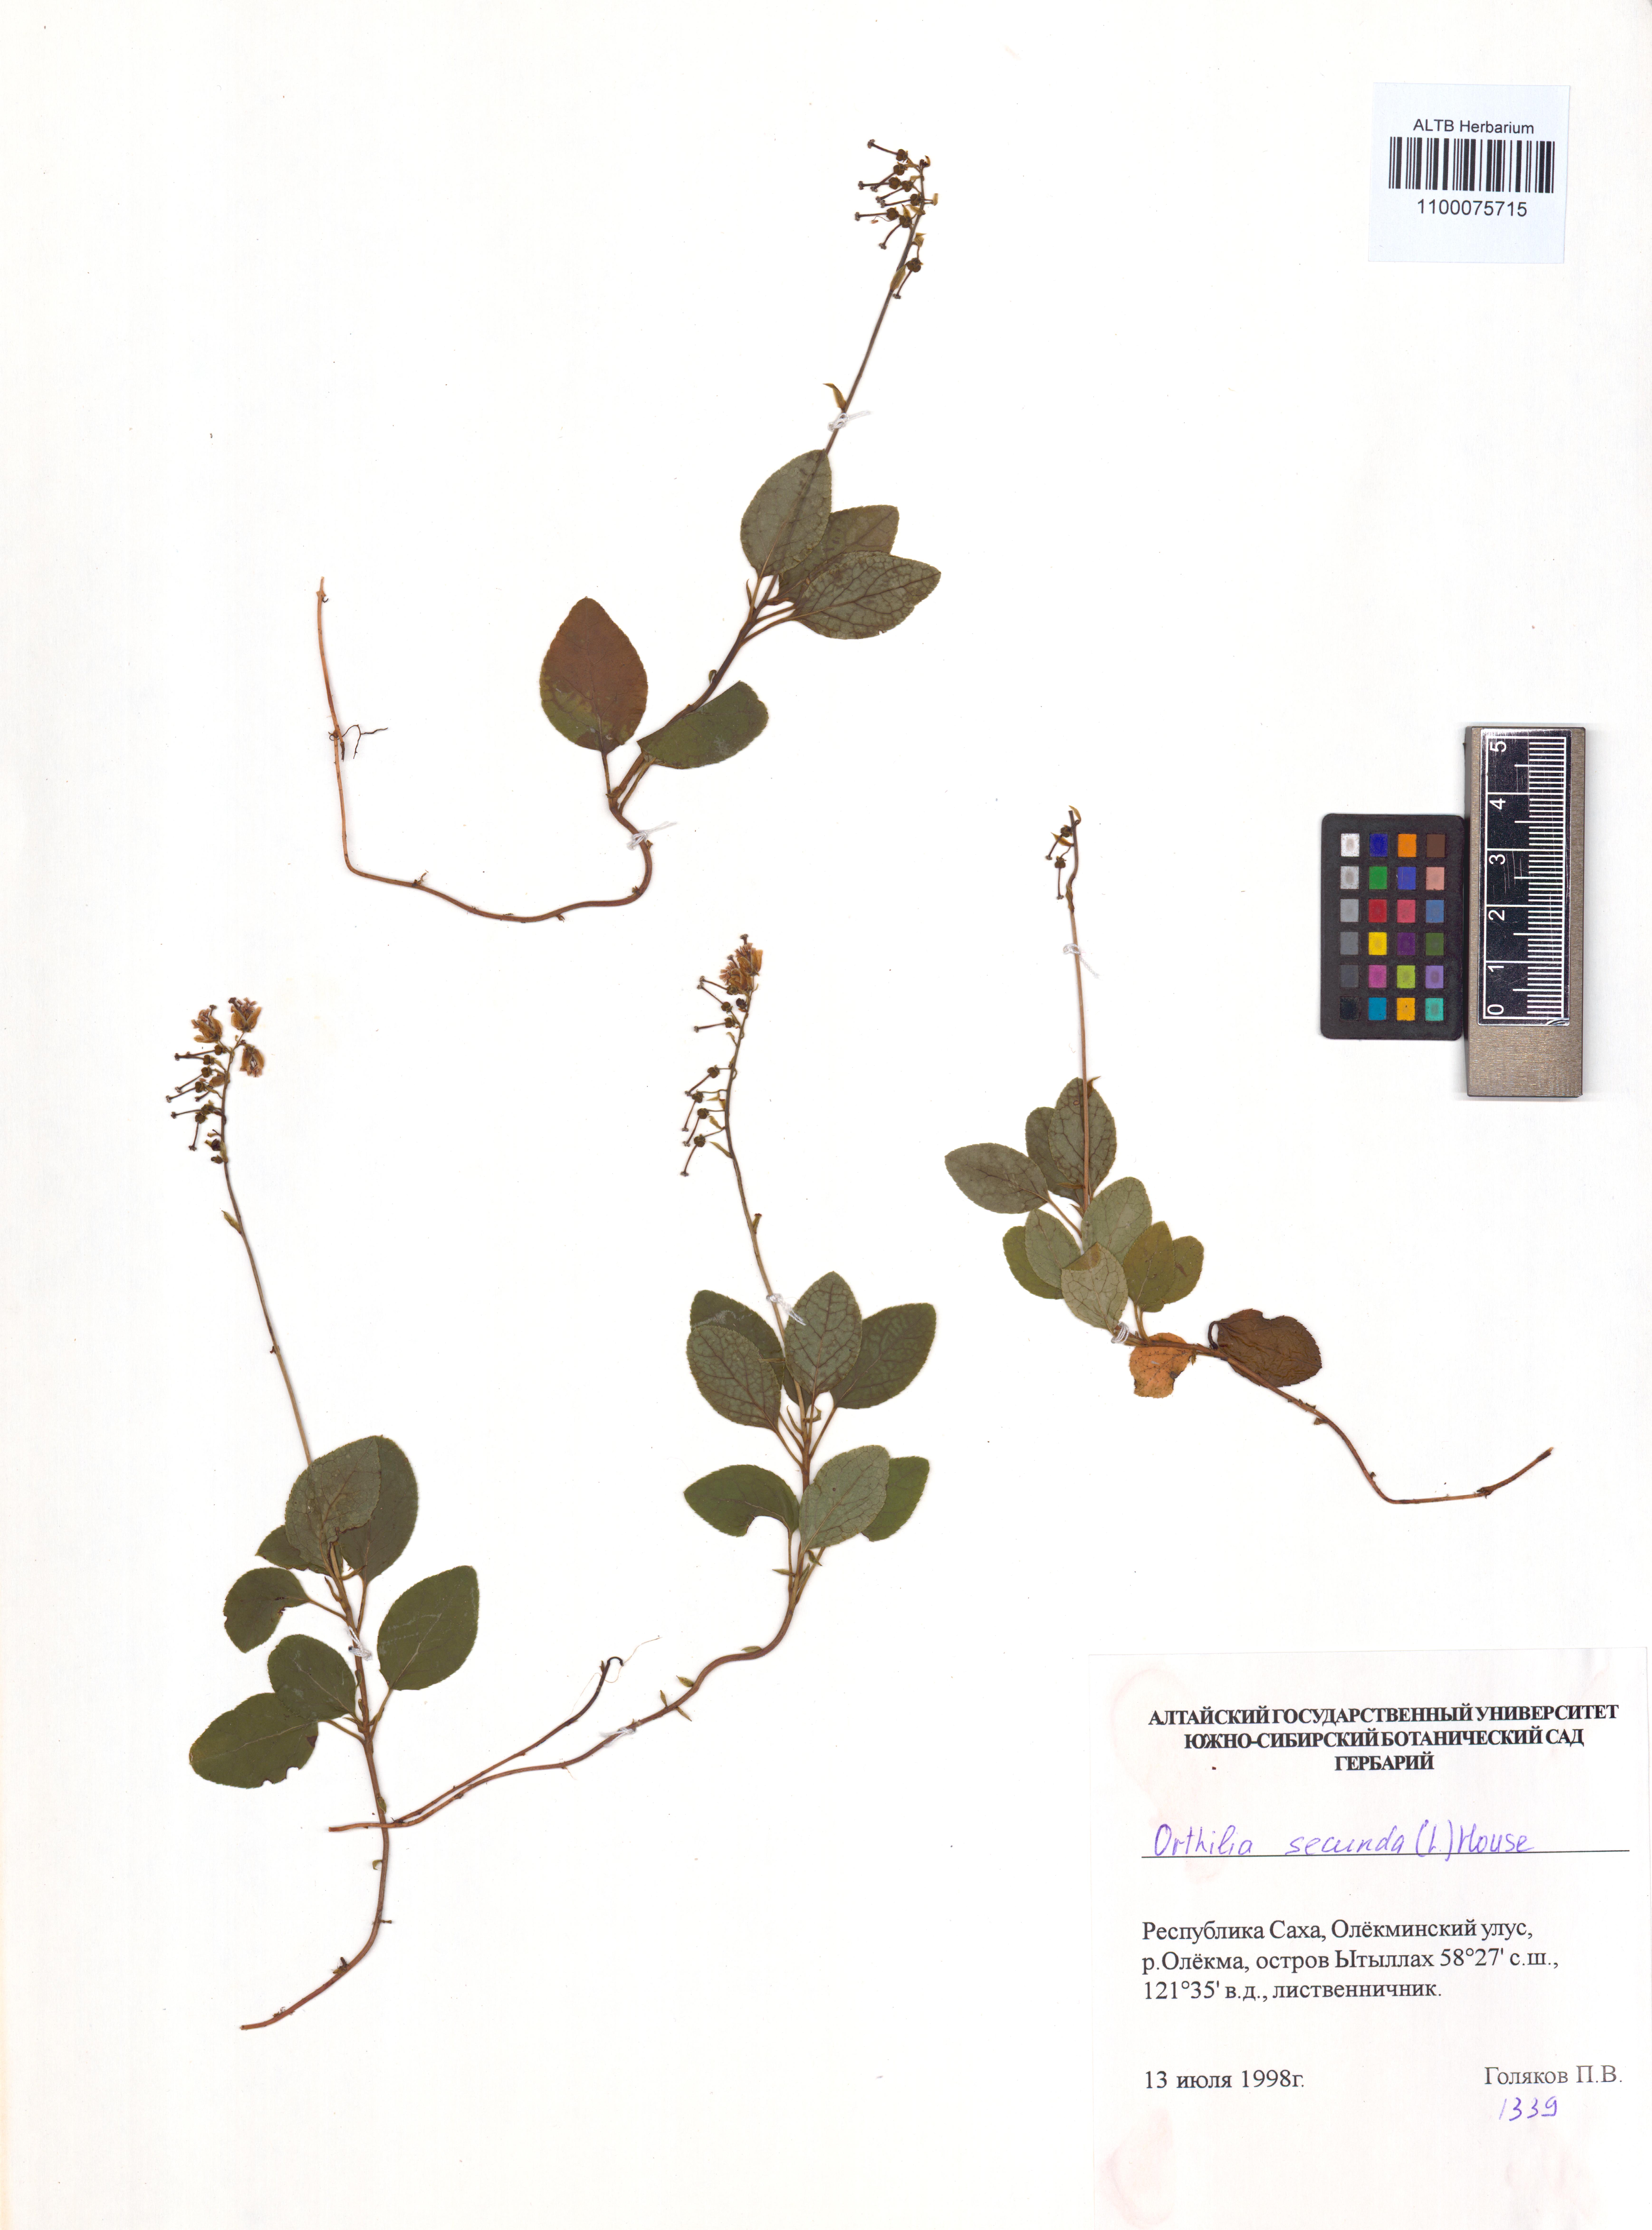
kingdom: Plantae
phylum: Tracheophyta
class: Magnoliopsida
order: Ericales
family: Ericaceae
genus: Orthilia
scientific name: Orthilia secunda
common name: One-sided orthilia
